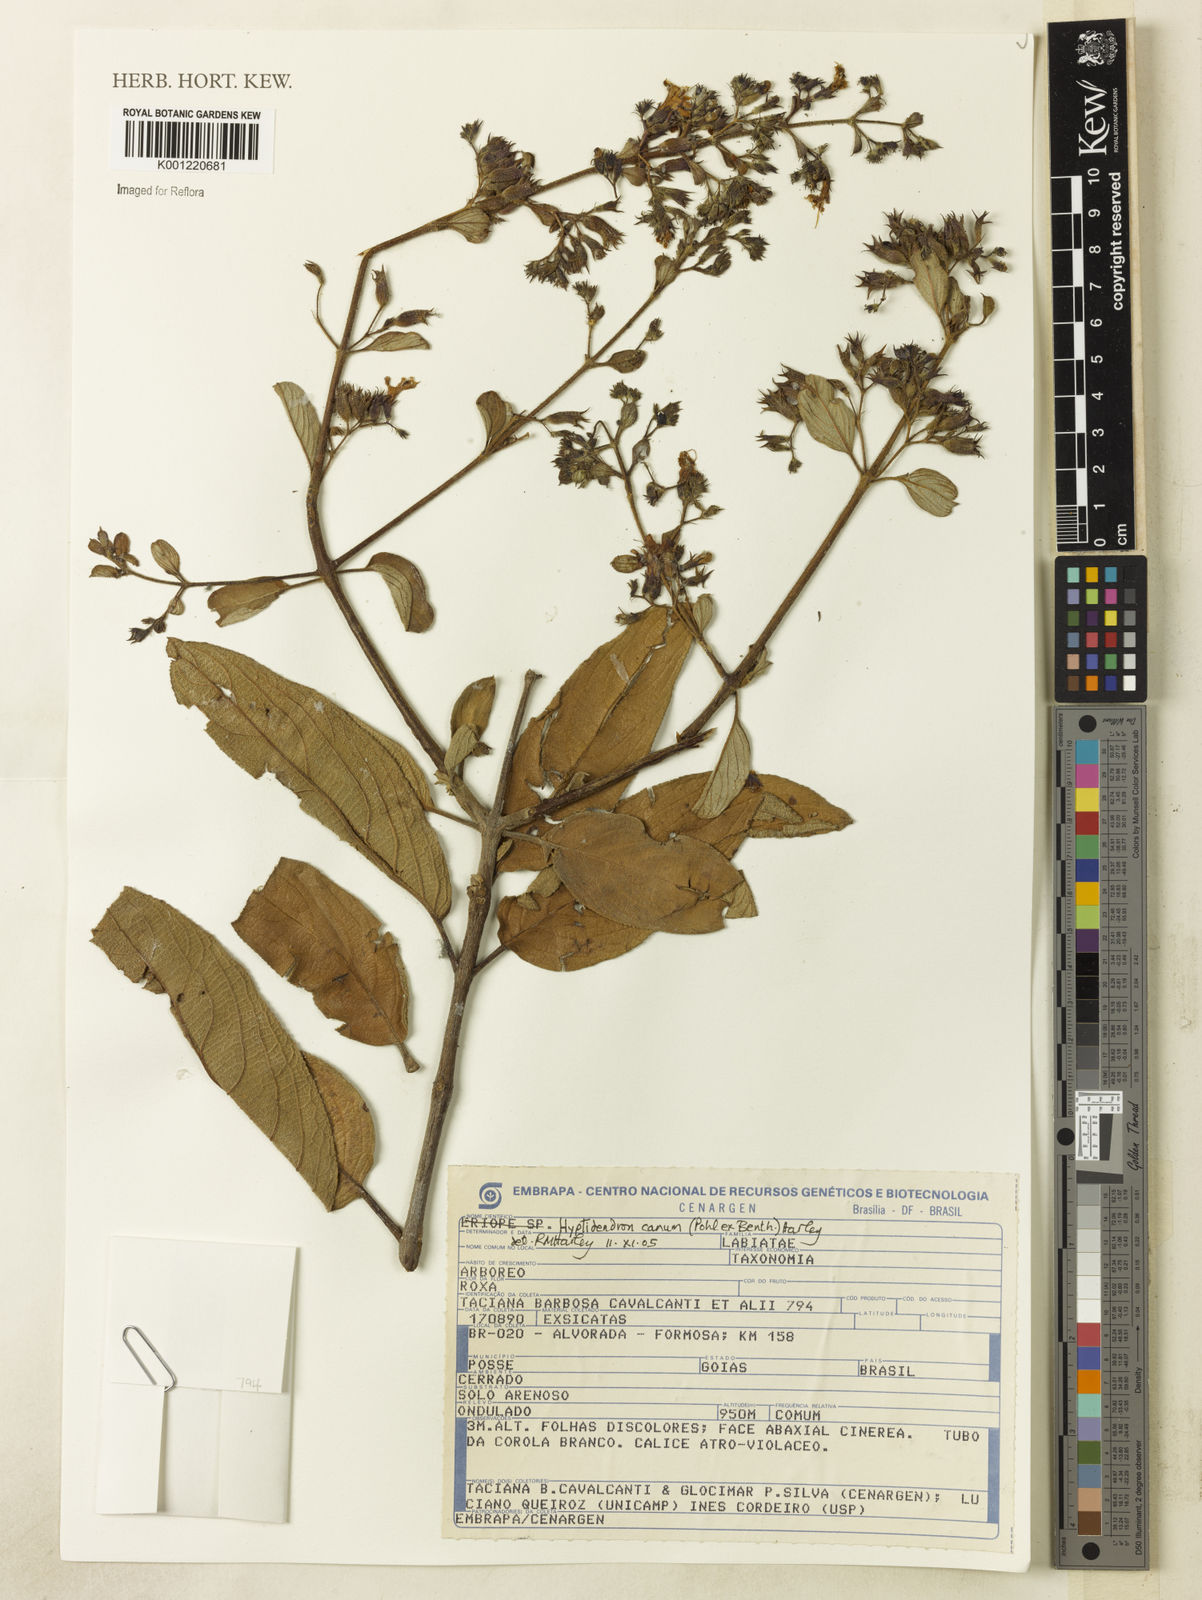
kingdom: Plantae
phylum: Tracheophyta
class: Magnoliopsida
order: Lamiales
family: Lamiaceae
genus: Hyptidendron
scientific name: Hyptidendron canum
